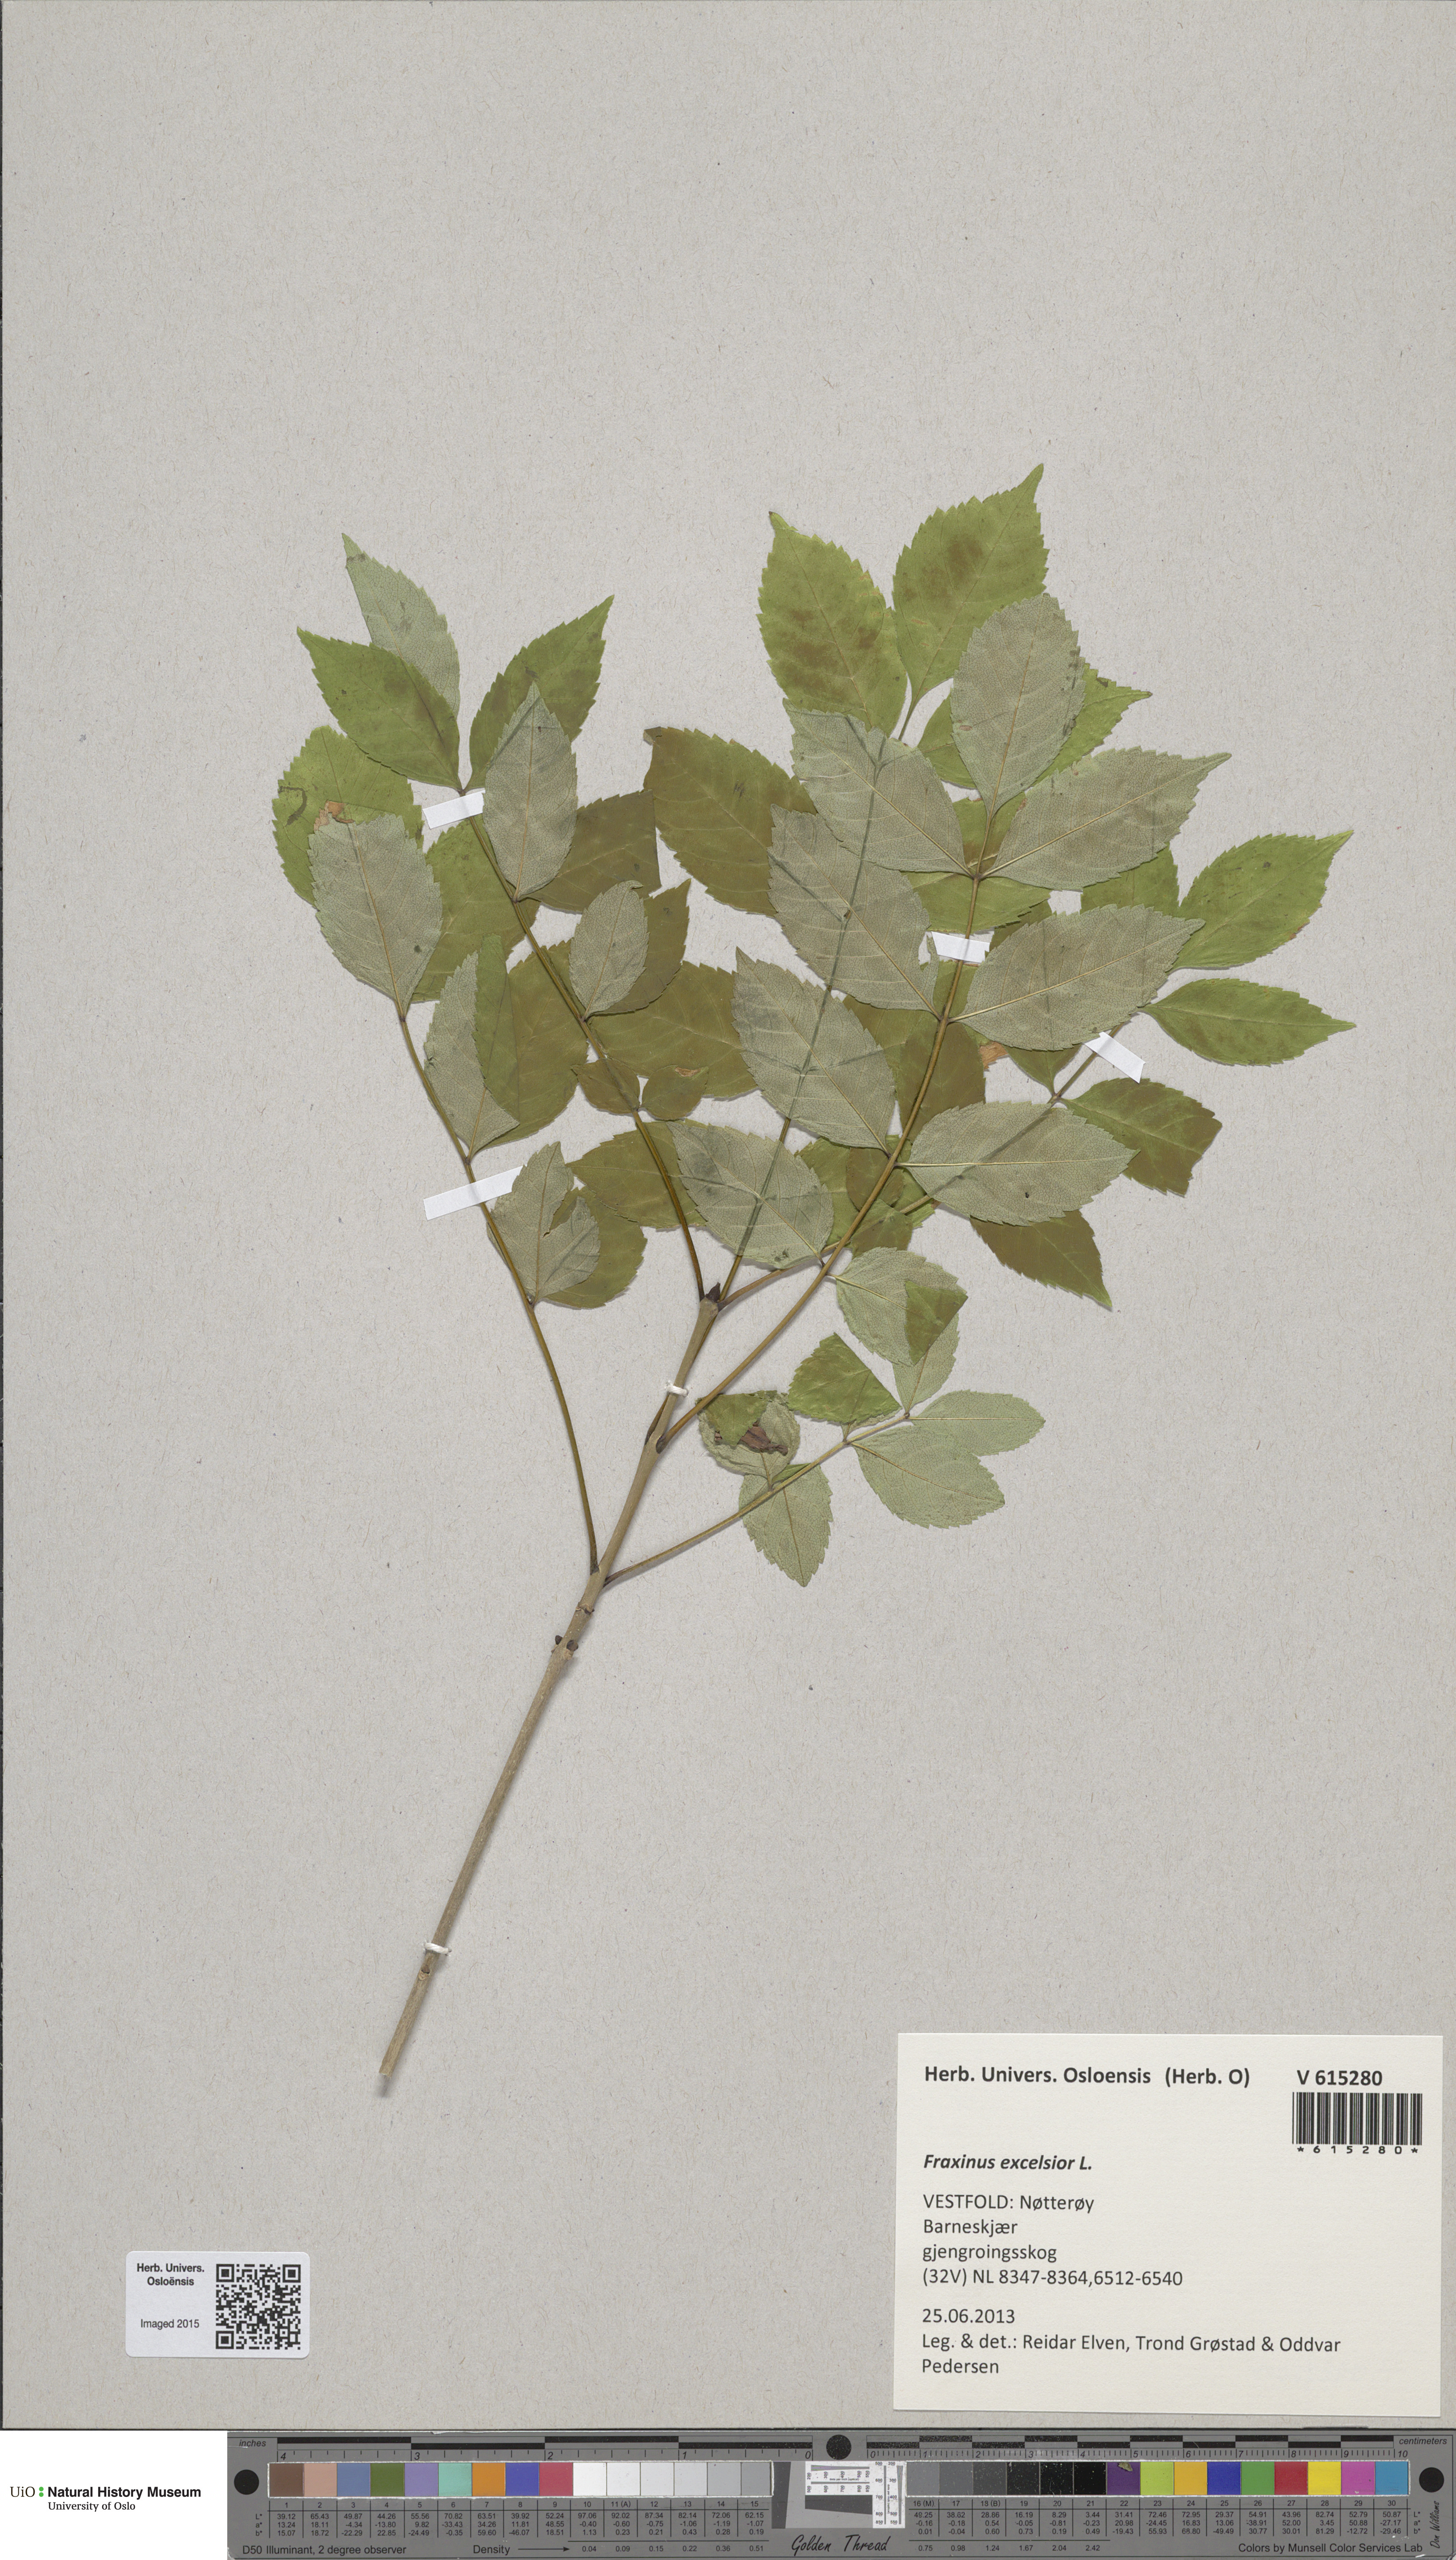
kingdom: Plantae
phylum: Tracheophyta
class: Magnoliopsida
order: Lamiales
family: Oleaceae
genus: Fraxinus
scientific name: Fraxinus excelsior
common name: European ash
